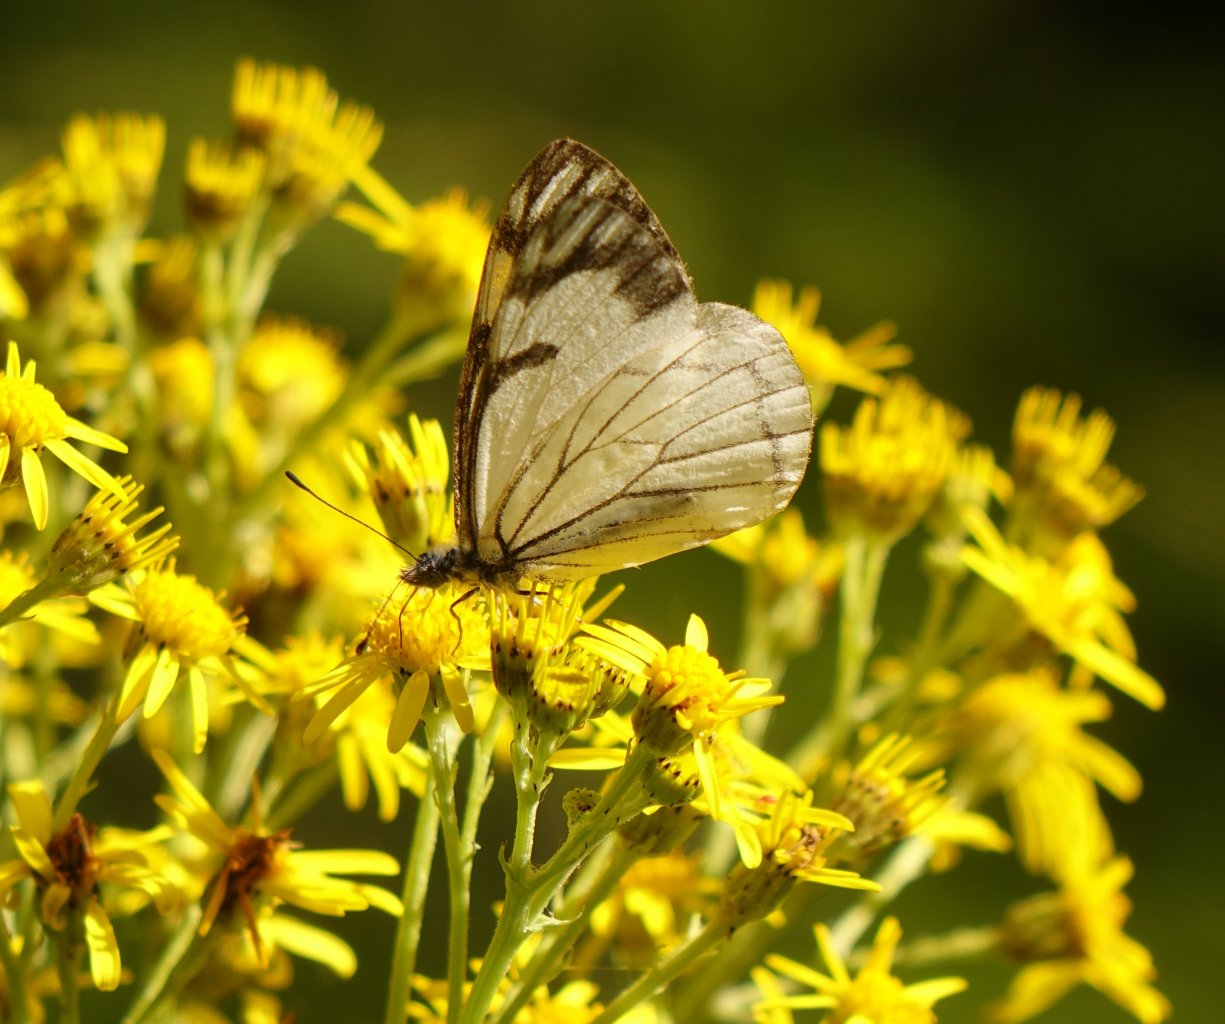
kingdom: Animalia
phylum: Arthropoda
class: Insecta
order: Lepidoptera
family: Pieridae
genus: Neophasia
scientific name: Neophasia menapia
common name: Pine White
